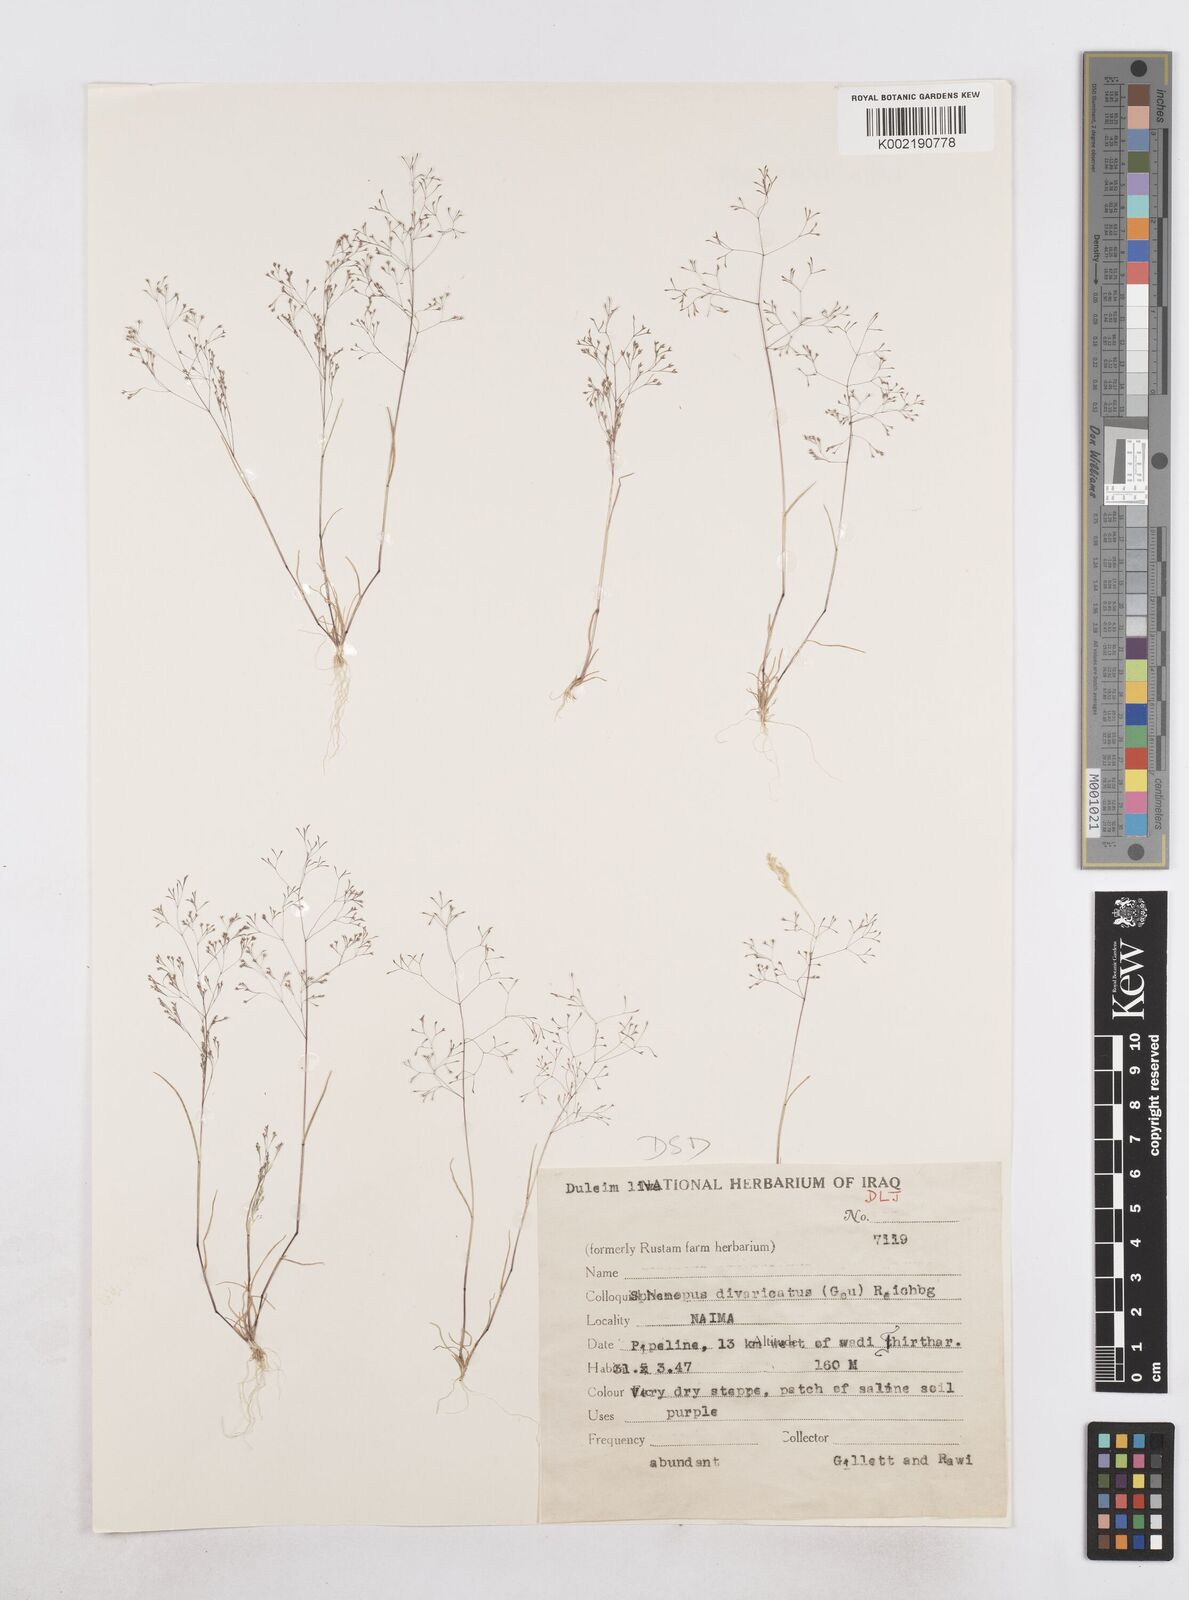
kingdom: Plantae
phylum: Tracheophyta
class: Liliopsida
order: Poales
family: Poaceae
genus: Sphenopus
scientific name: Sphenopus divaricatus
